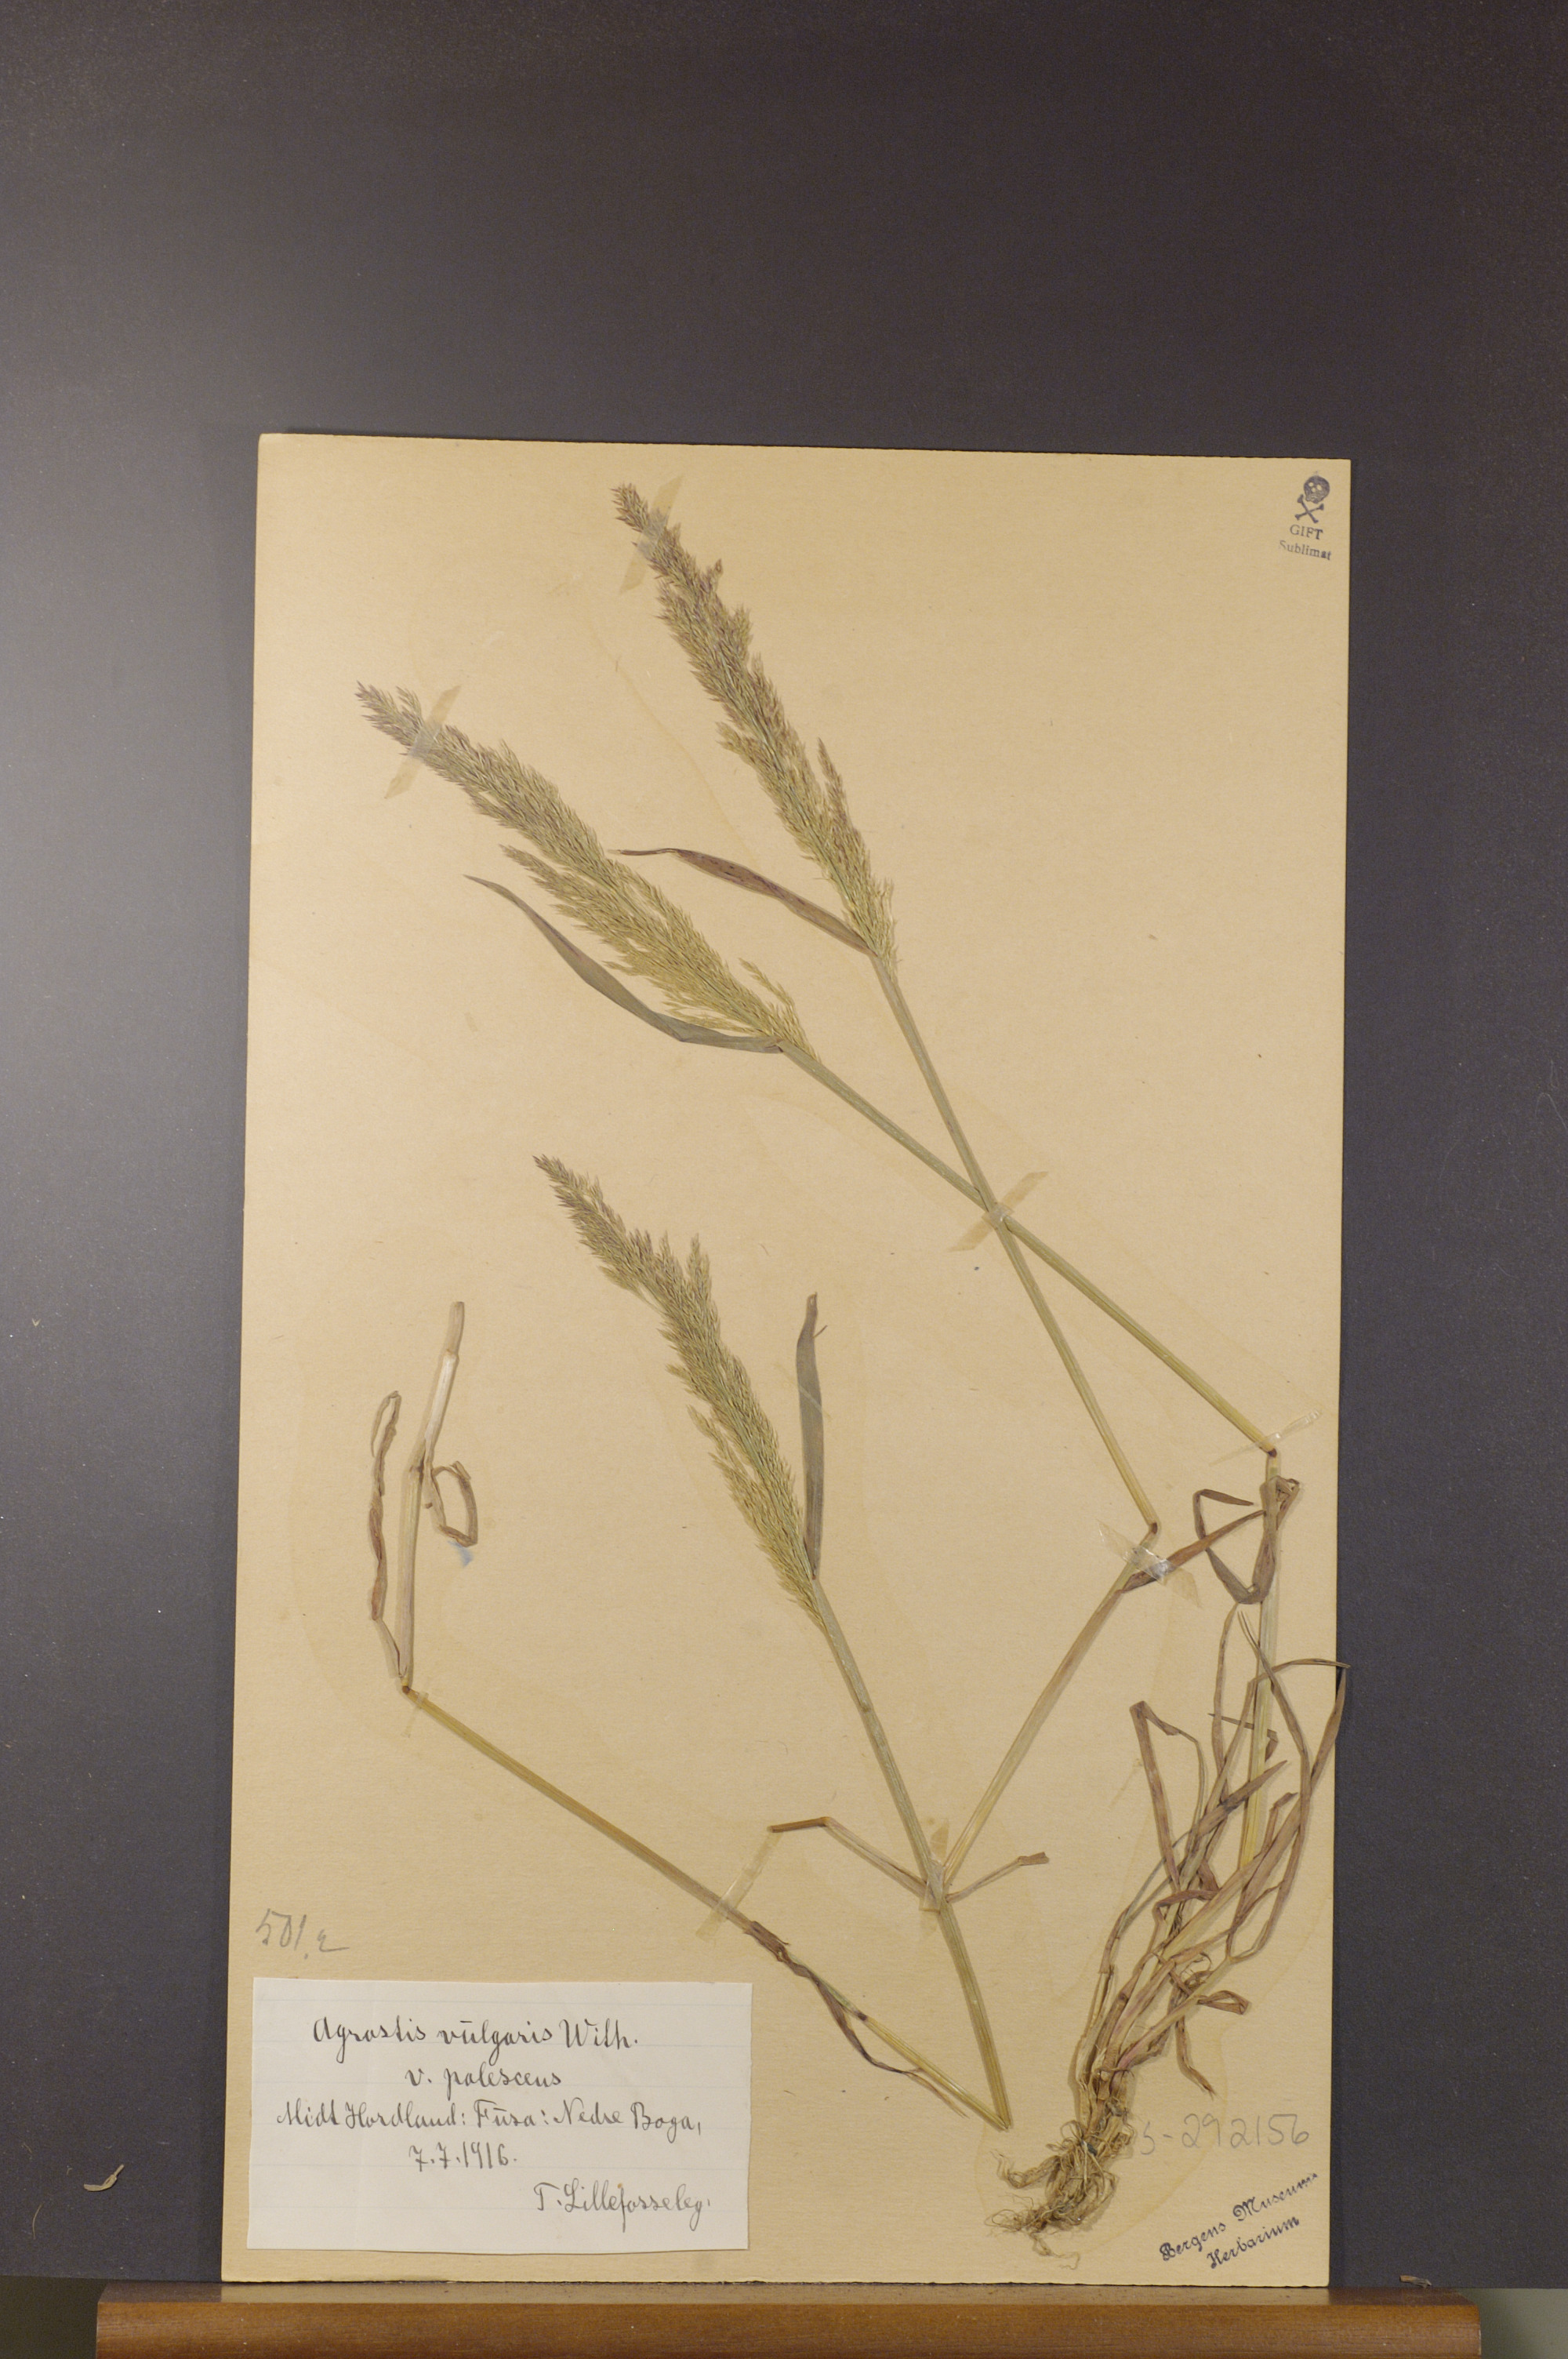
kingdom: Plantae
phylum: Tracheophyta
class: Liliopsida
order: Poales
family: Poaceae
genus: Agrostis
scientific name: Agrostis capillaris
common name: Colonial bentgrass
